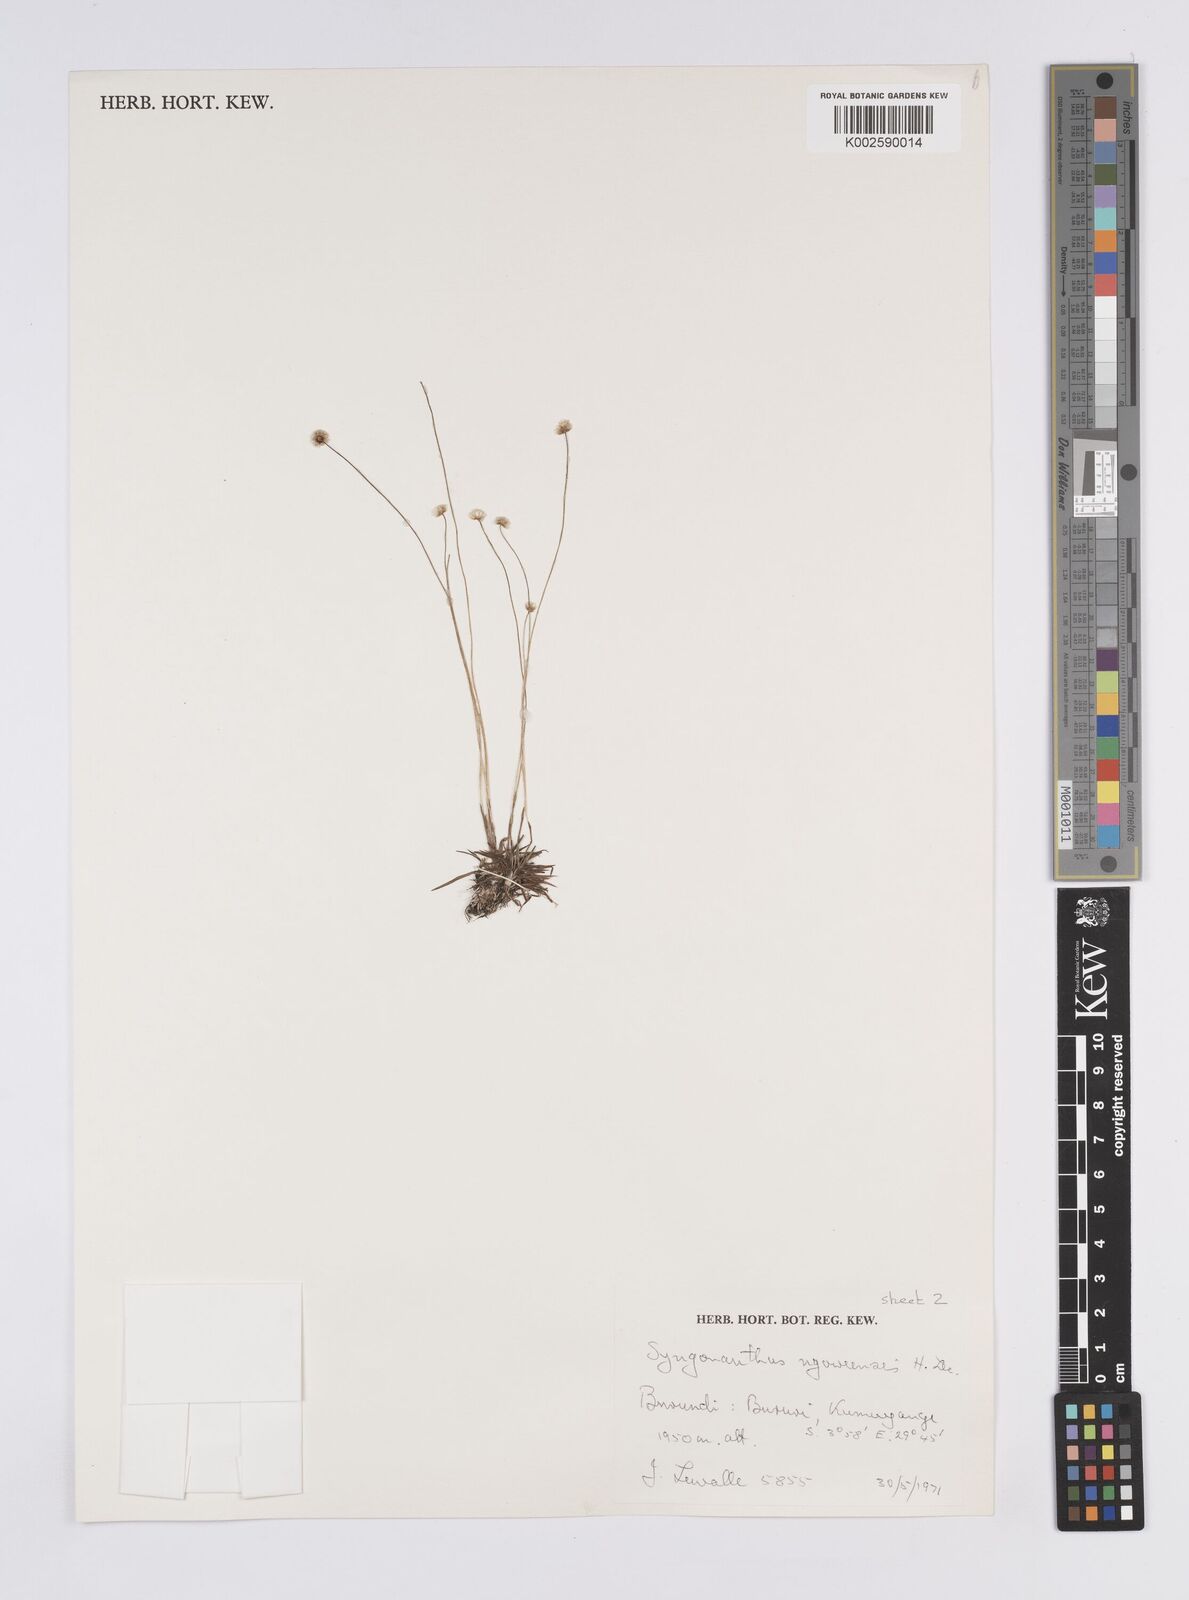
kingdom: Plantae
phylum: Tracheophyta
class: Liliopsida
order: Poales
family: Eriocaulaceae
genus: Syngonanthus
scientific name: Syngonanthus lisowskii
